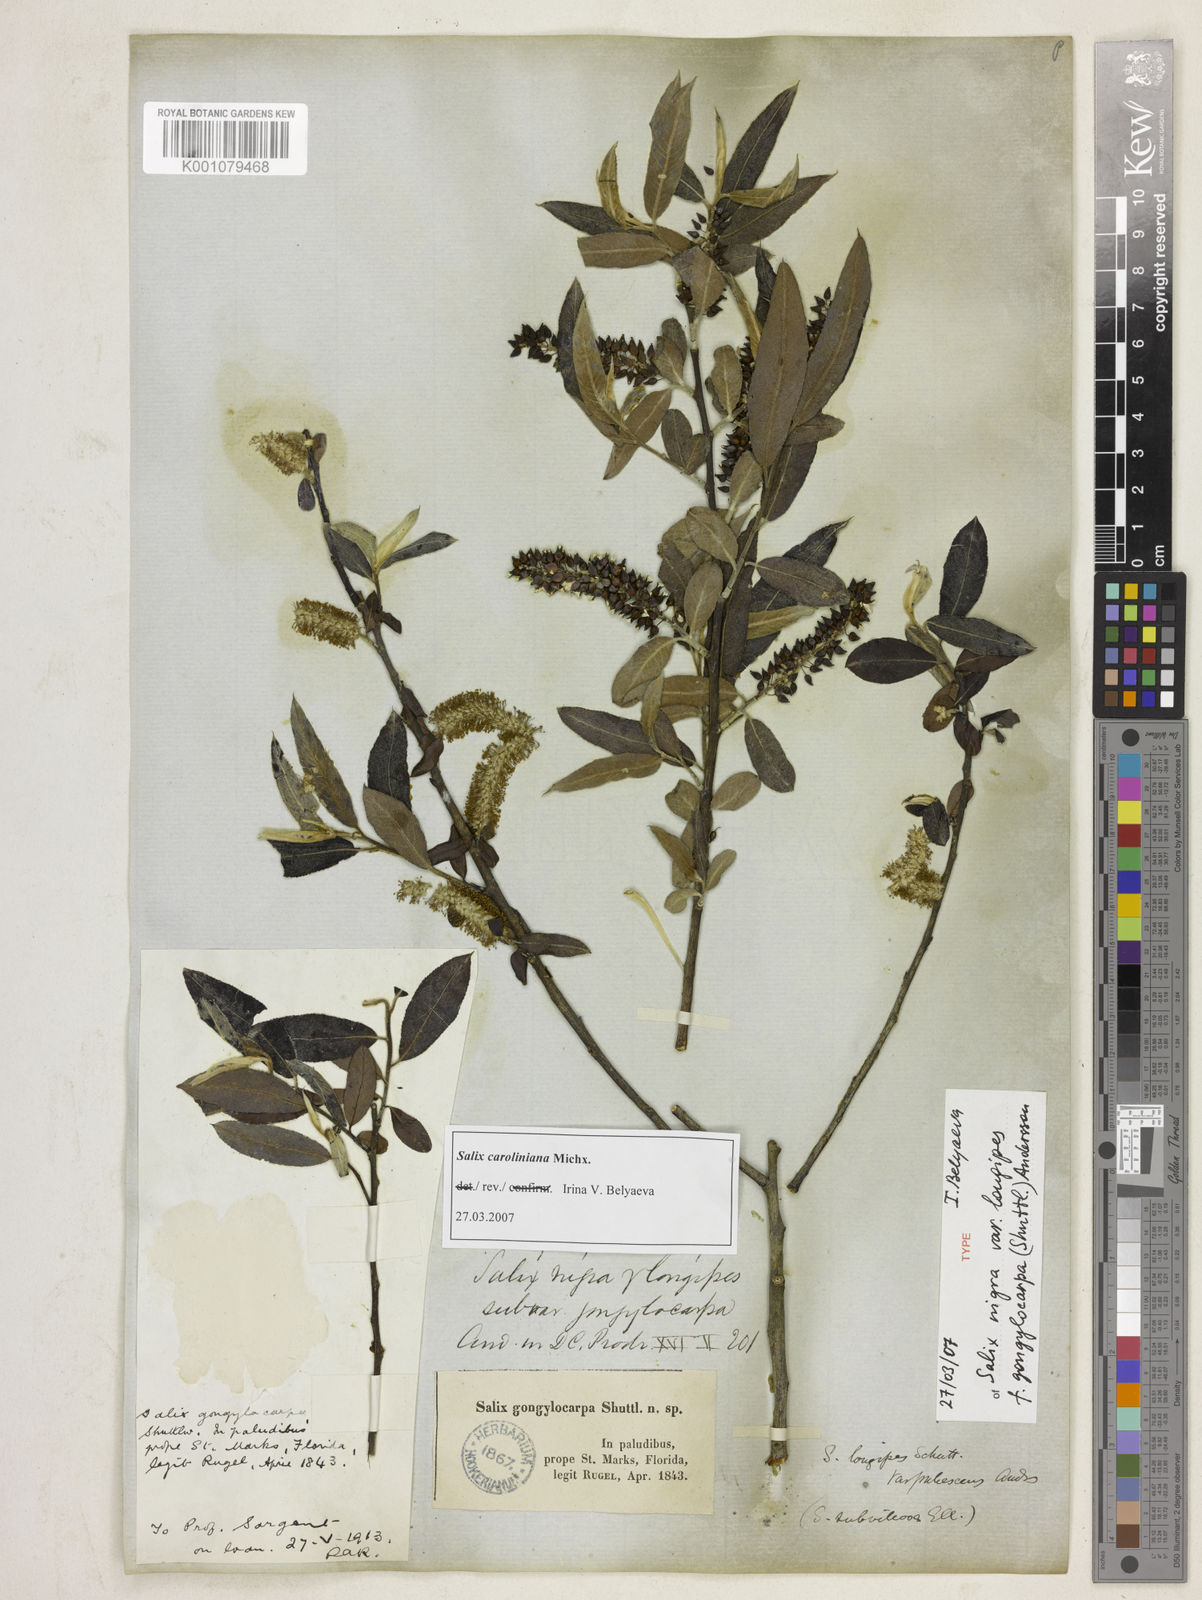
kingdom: Plantae
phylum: Tracheophyta
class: Magnoliopsida
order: Malpighiales
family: Salicaceae
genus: Salix
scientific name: Salix caroliniana
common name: Carolina willow
